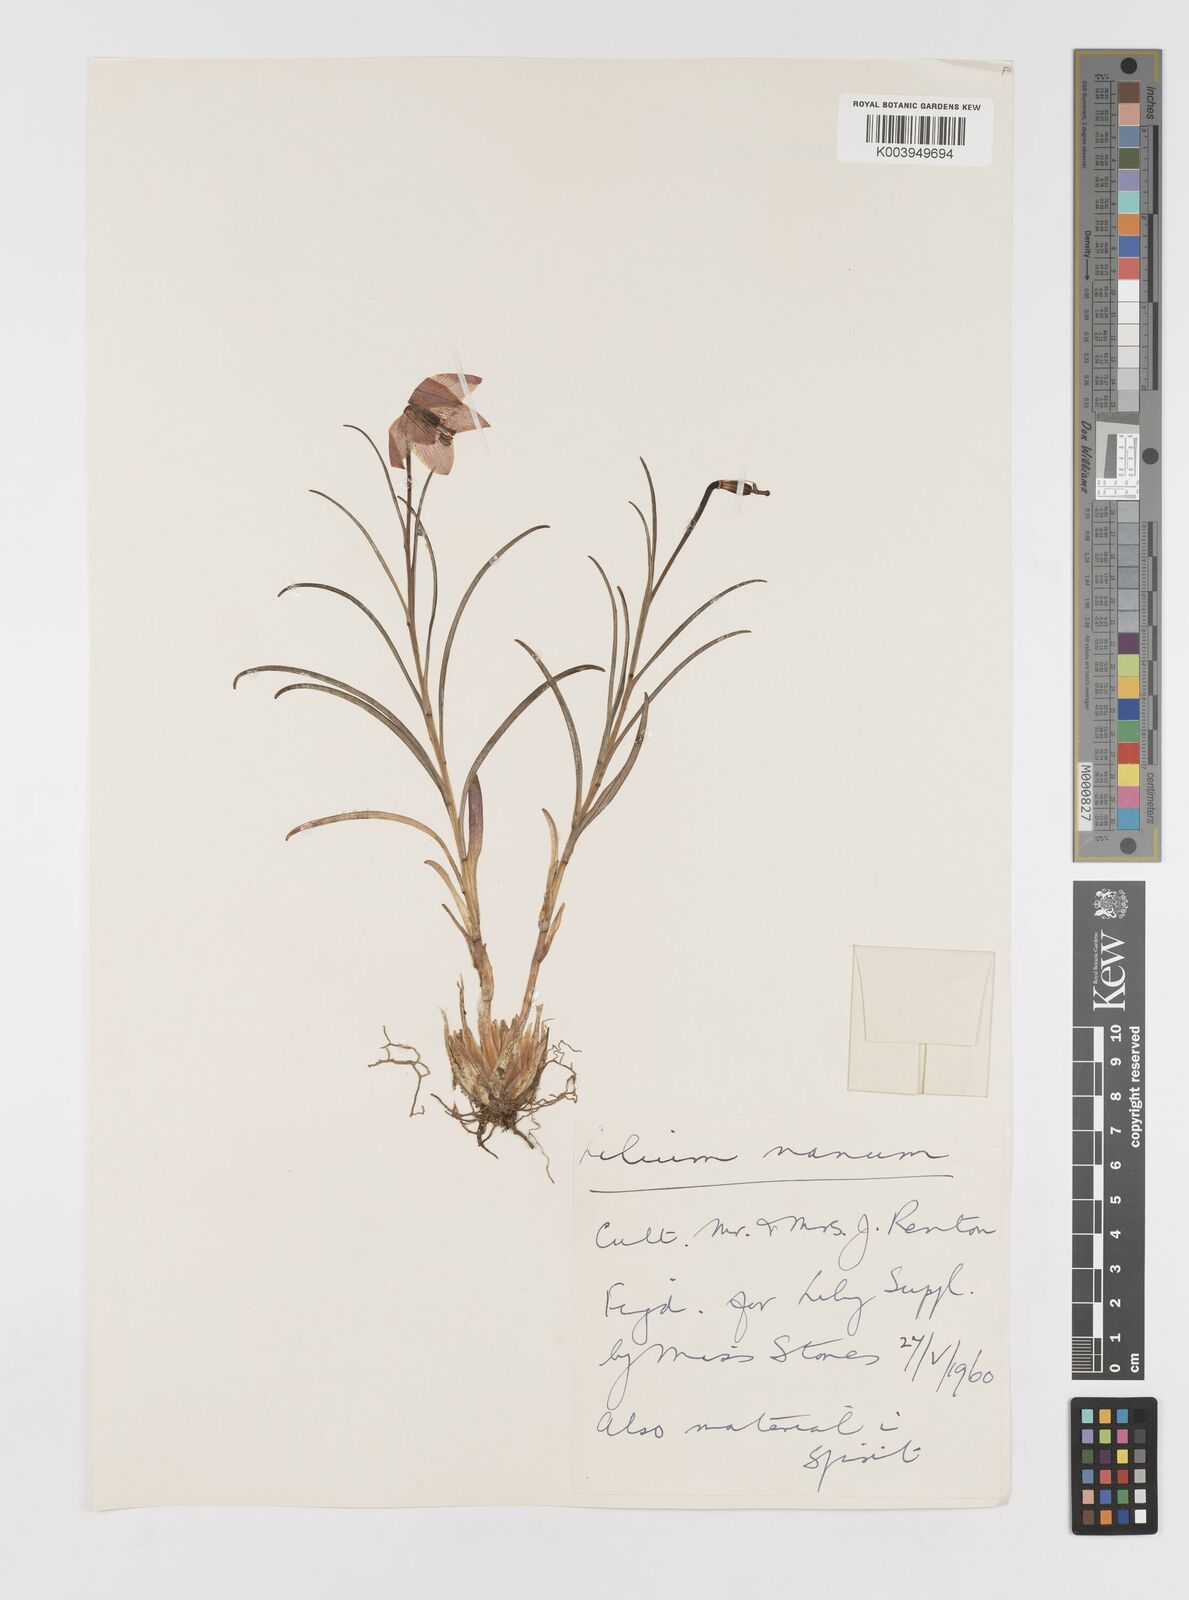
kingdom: Plantae
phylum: Tracheophyta
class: Liliopsida
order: Liliales
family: Liliaceae
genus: Lilium
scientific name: Lilium nanum
